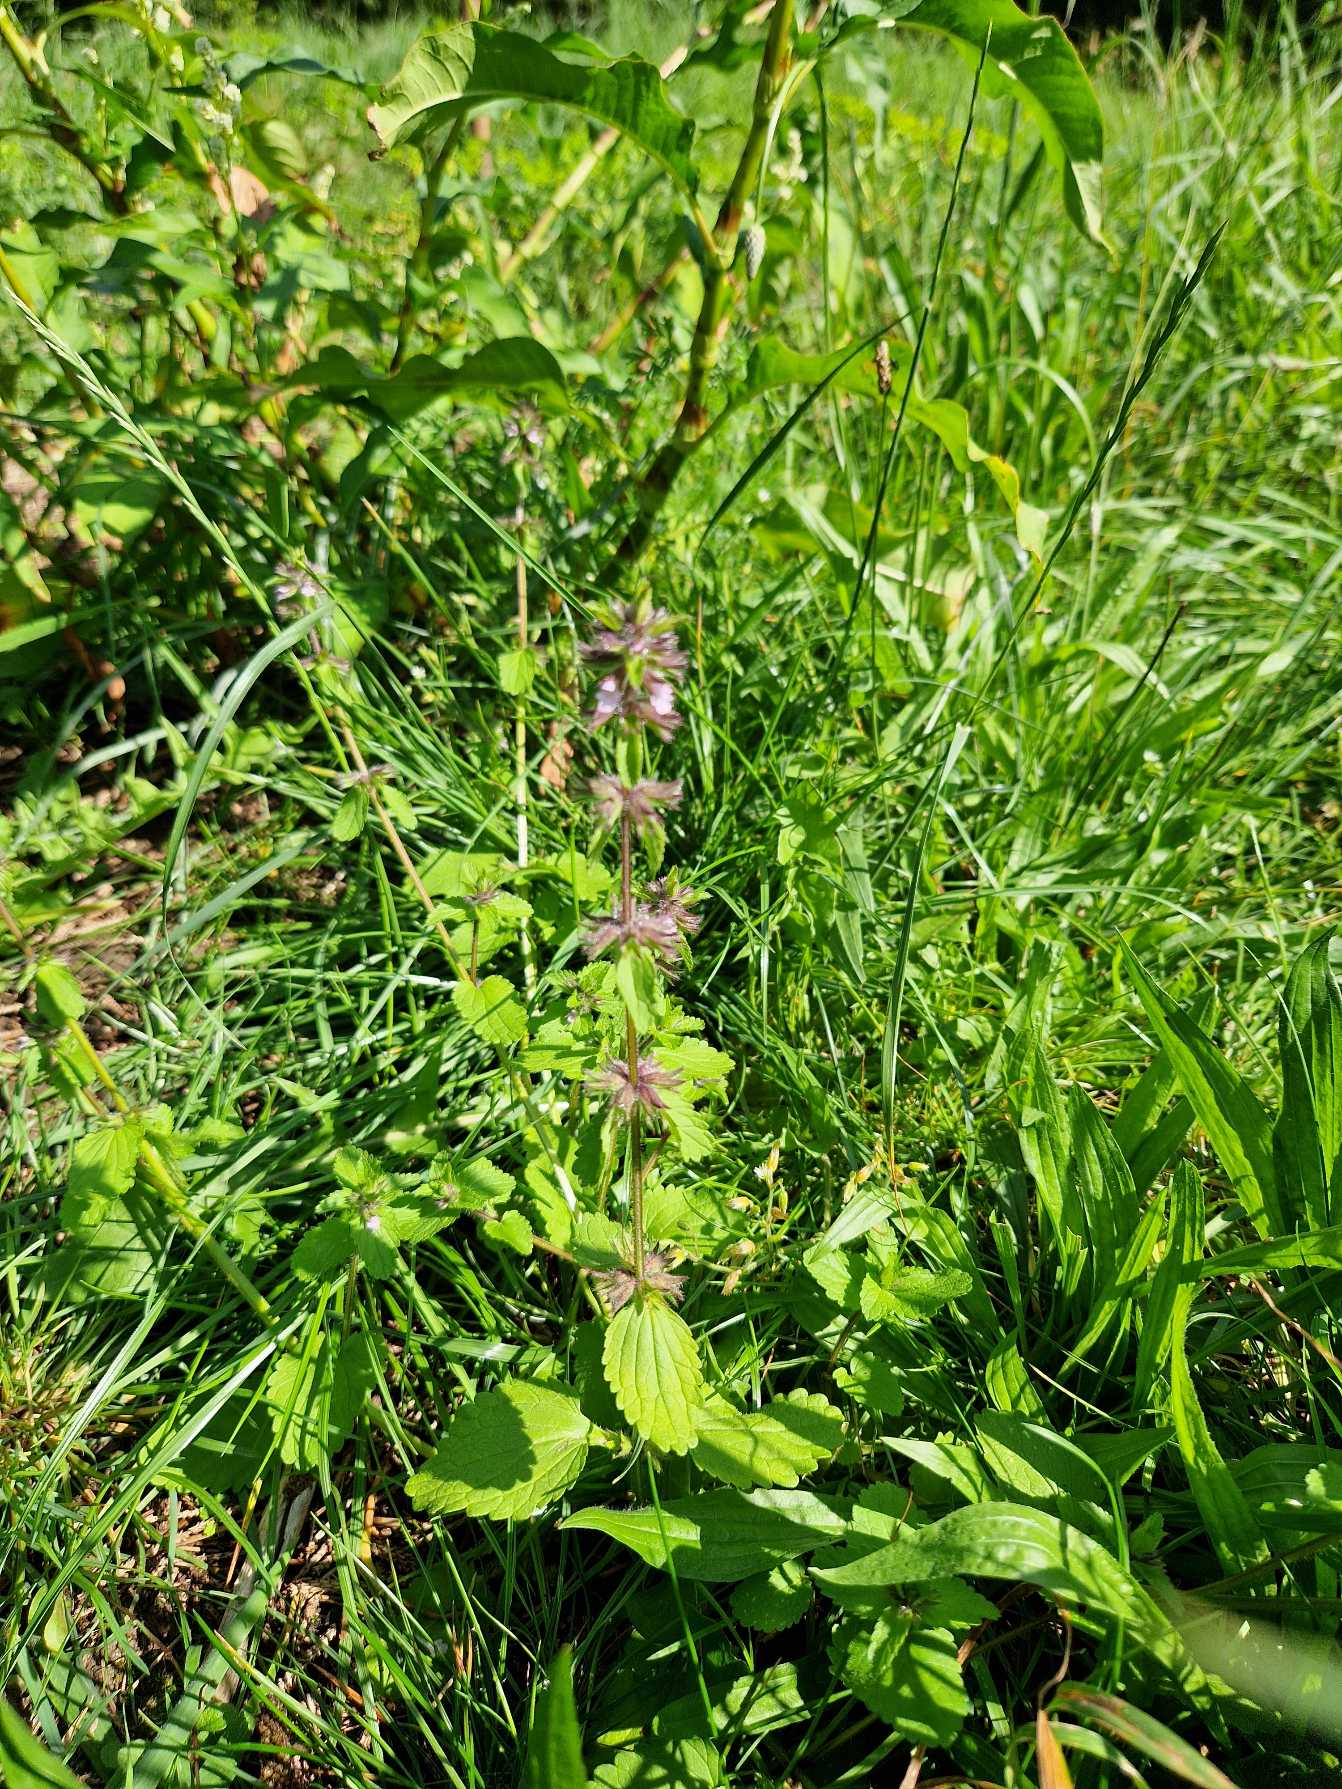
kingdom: Plantae
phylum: Tracheophyta
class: Magnoliopsida
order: Lamiales
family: Lamiaceae
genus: Stachys
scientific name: Stachys arvensis
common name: Ager-galtetand
